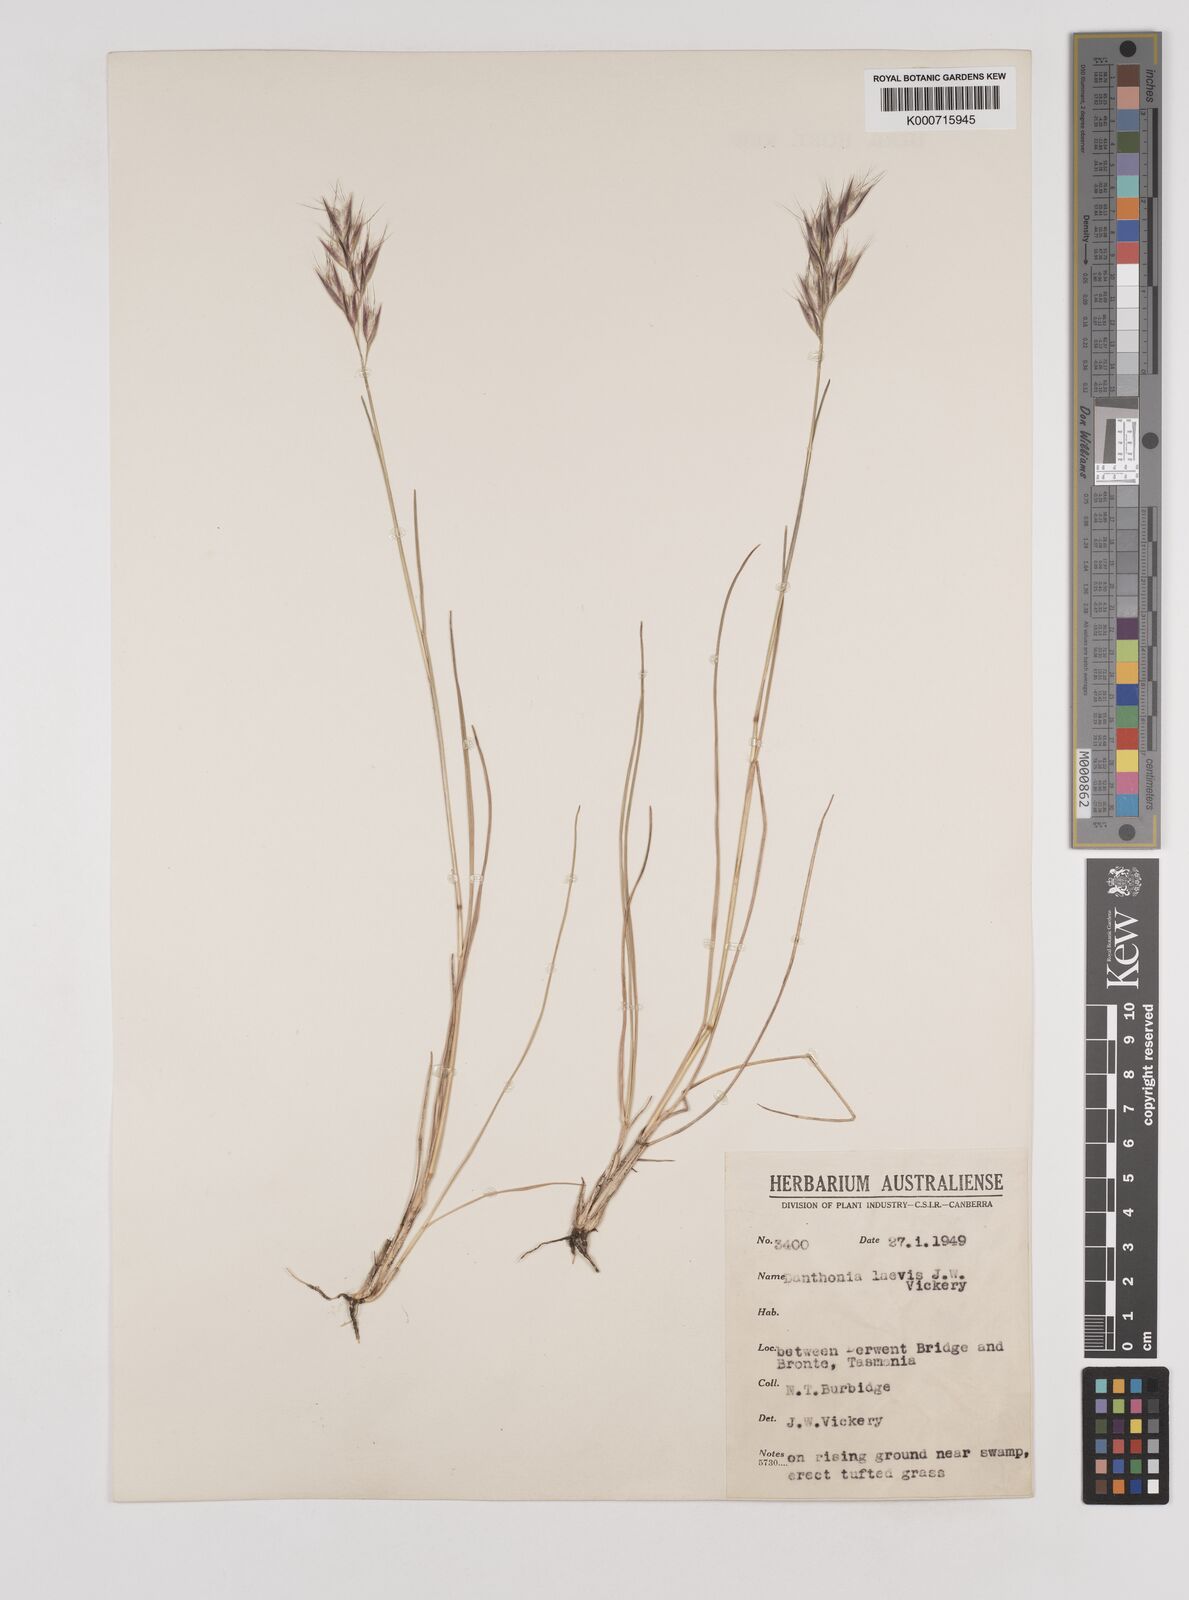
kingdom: Plantae
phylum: Tracheophyta
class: Liliopsida
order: Poales
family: Poaceae
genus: Rytidosperma
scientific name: Rytidosperma laeve
